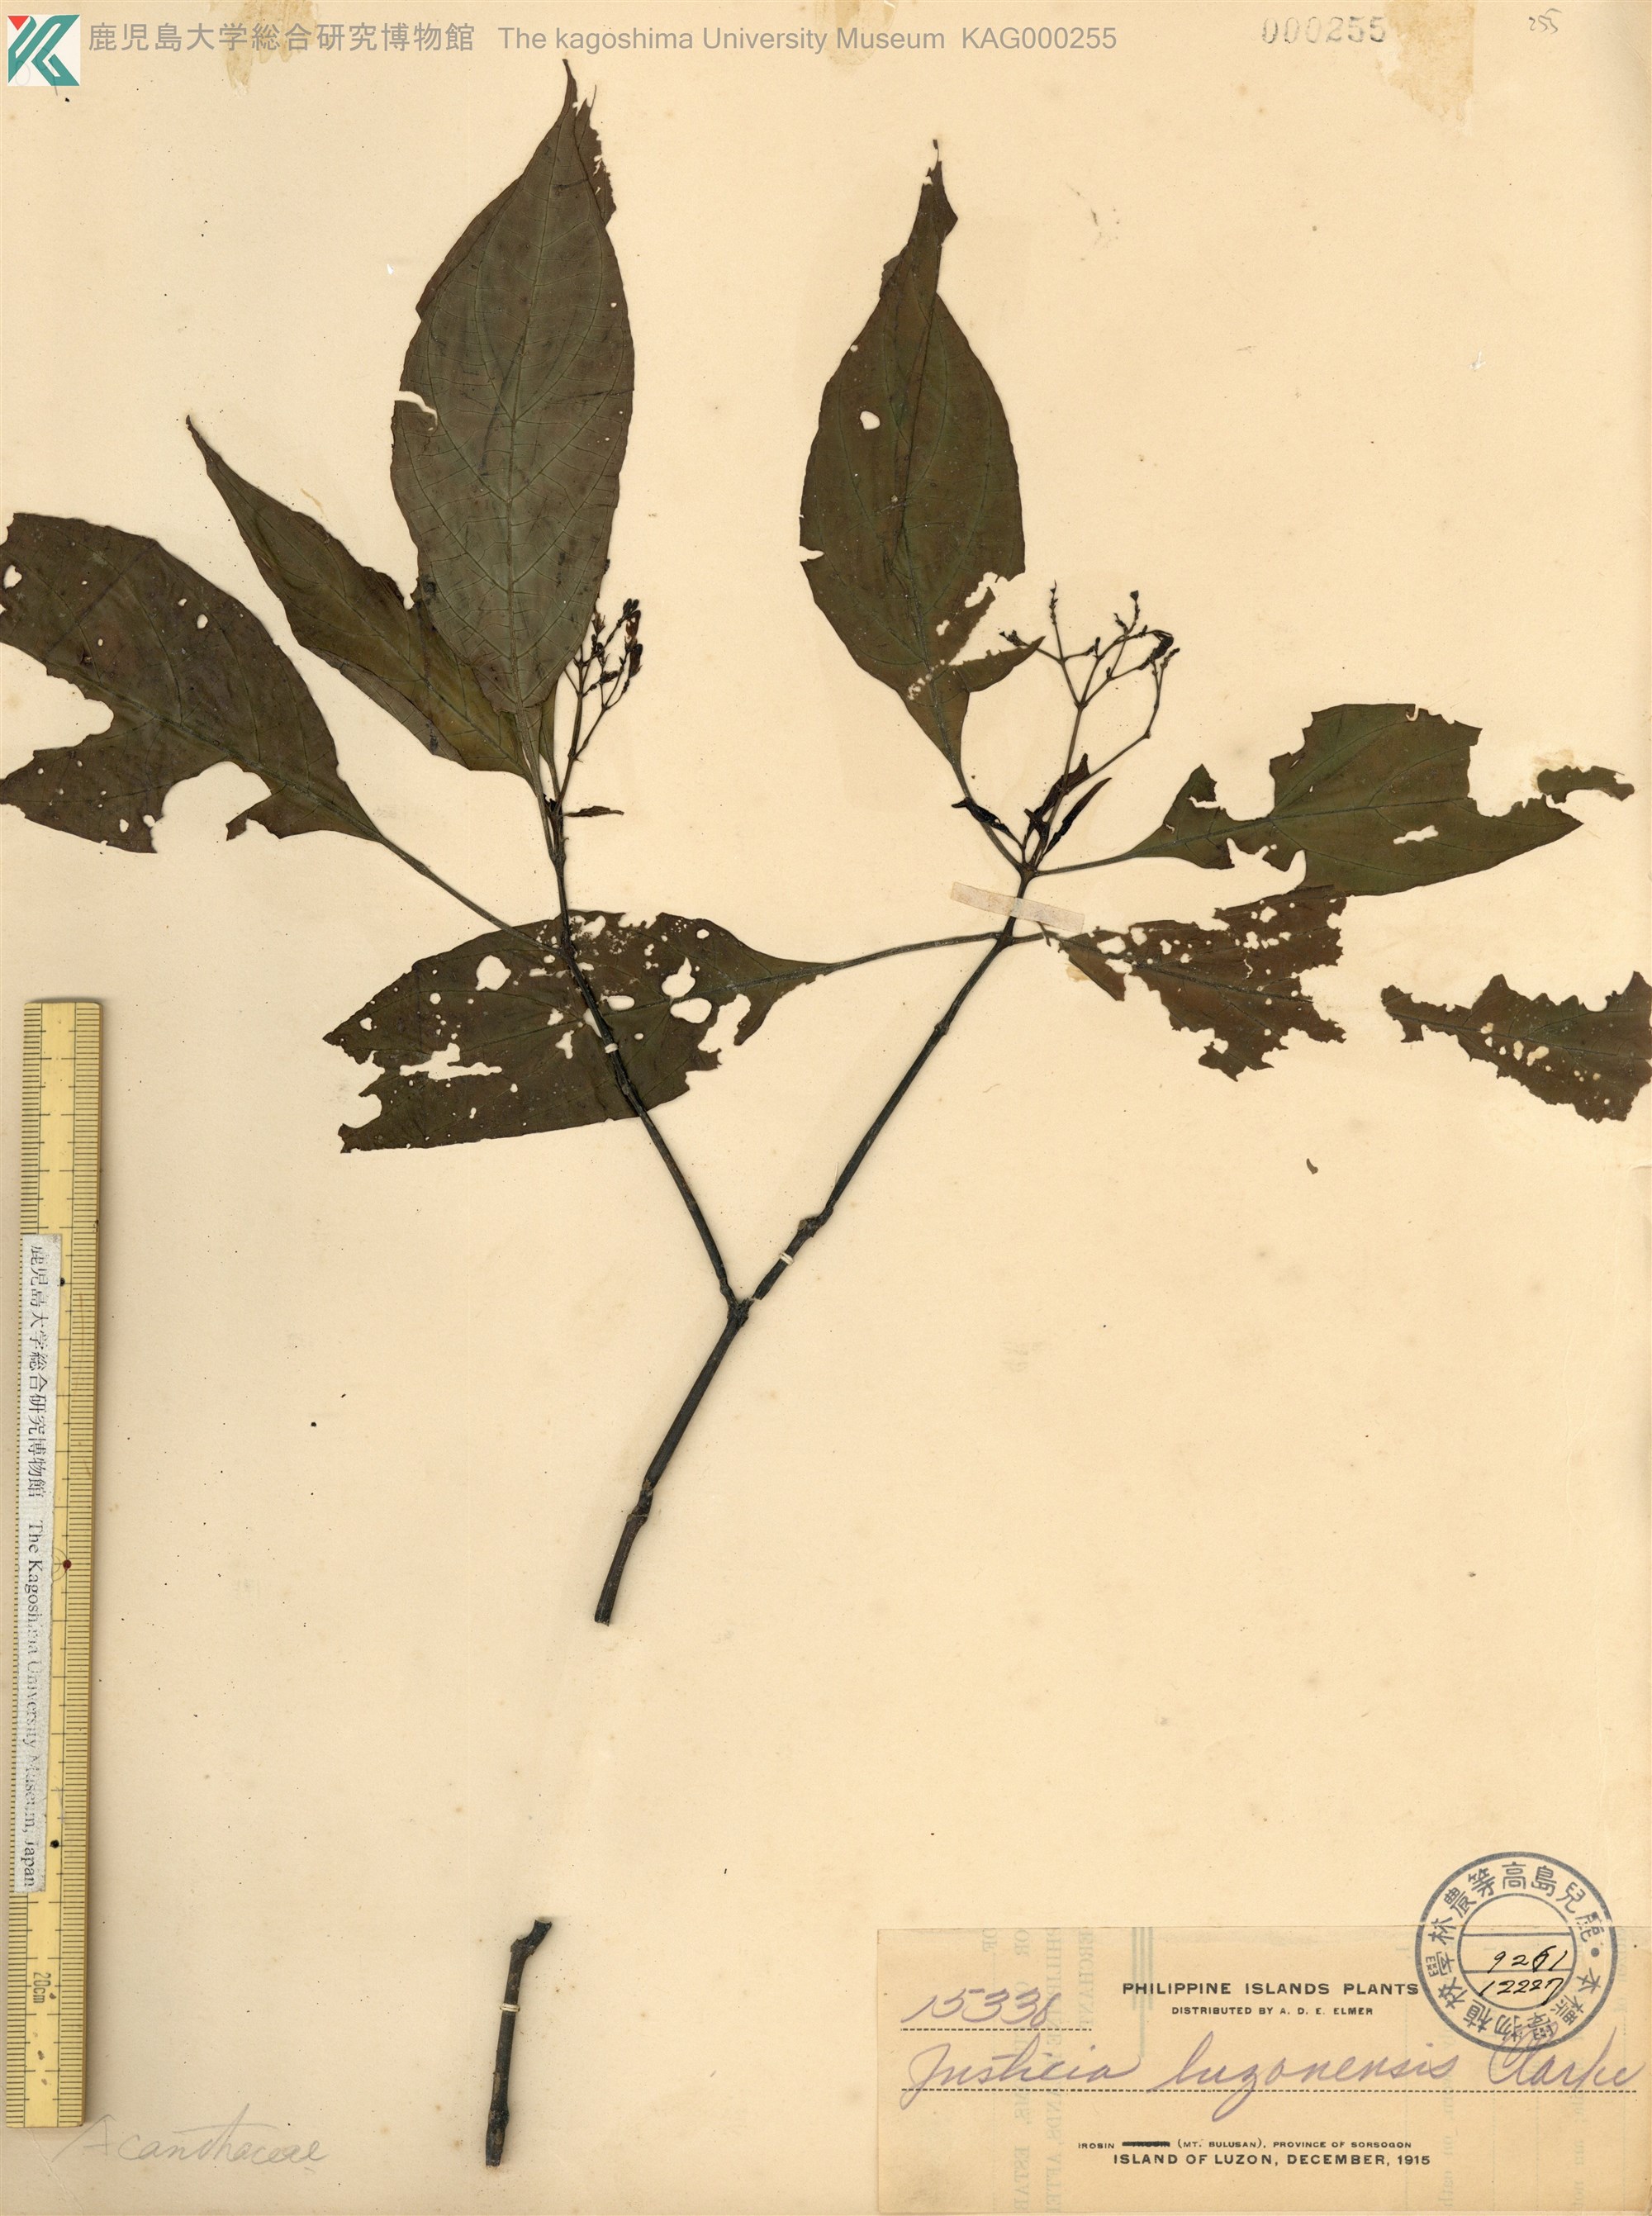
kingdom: Plantae
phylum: Tracheophyta
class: Magnoliopsida
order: Lamiales
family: Acanthaceae
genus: Rhaphidospora
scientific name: Rhaphidospora luzonensis
